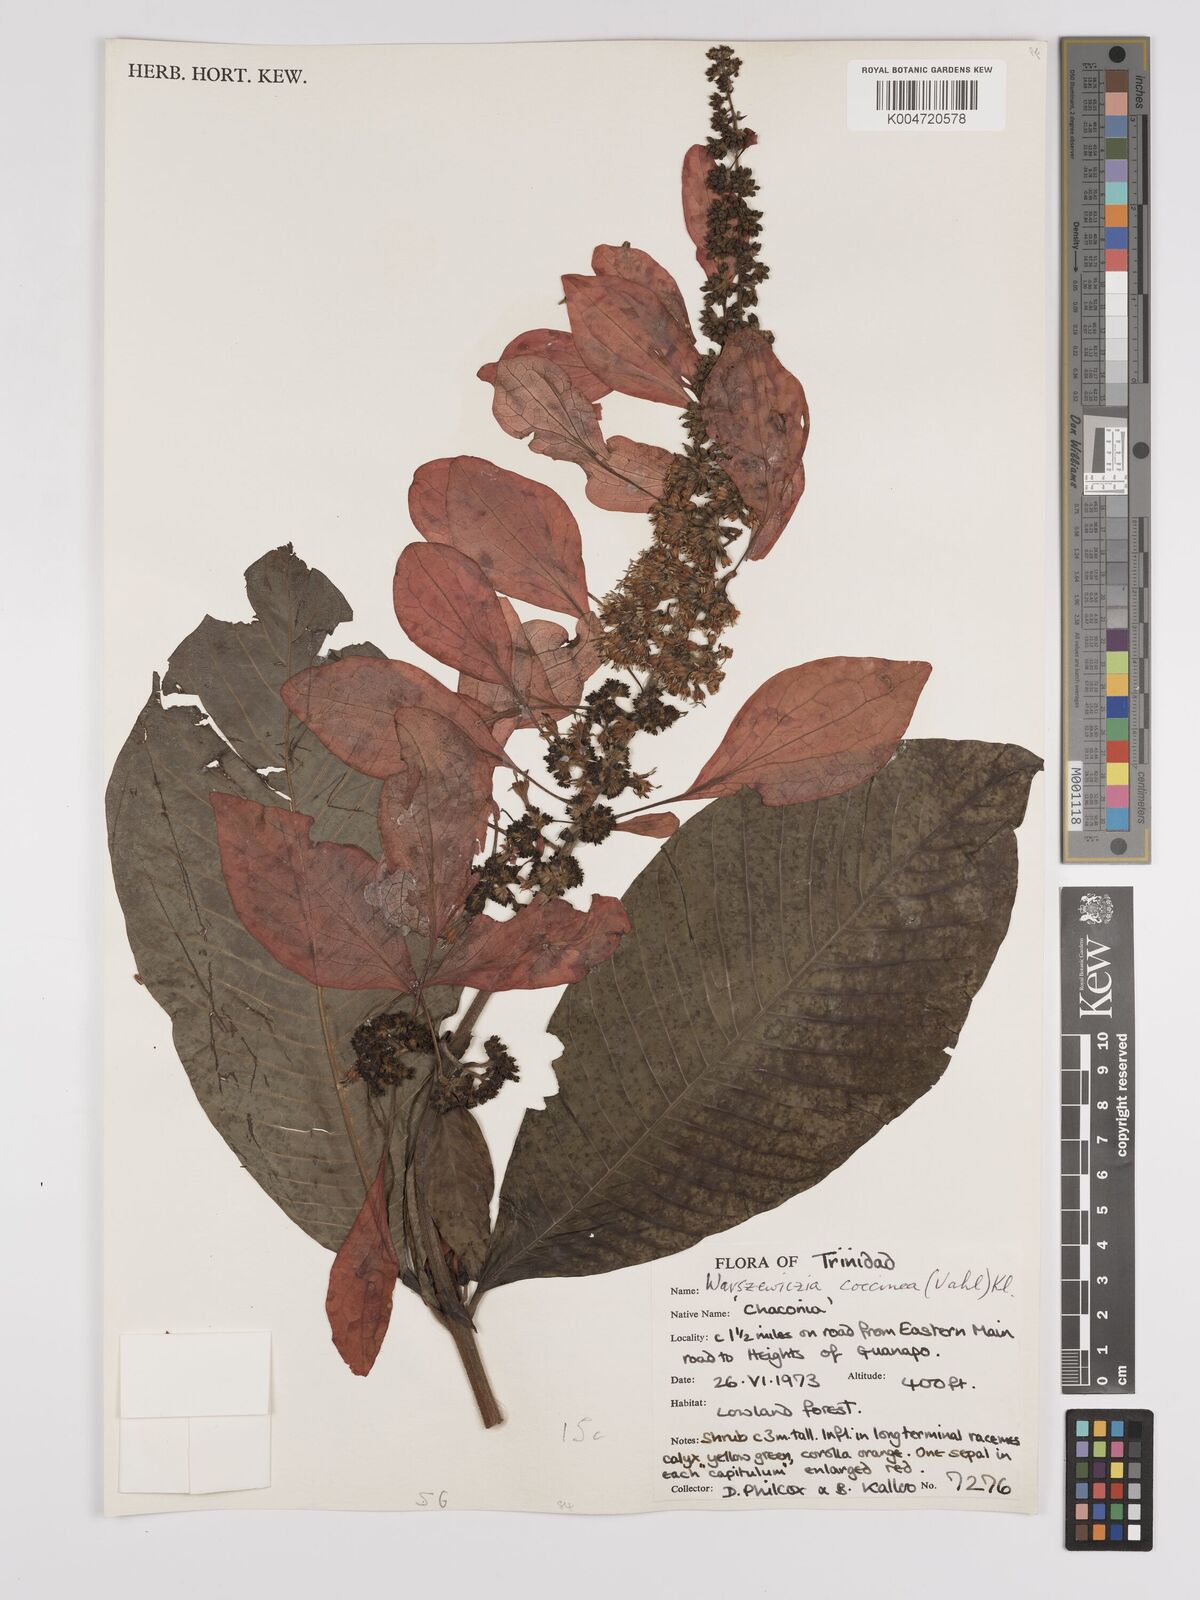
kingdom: Plantae
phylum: Tracheophyta
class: Magnoliopsida
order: Gentianales
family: Rubiaceae
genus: Warszewiczia
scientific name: Warszewiczia coccinea
